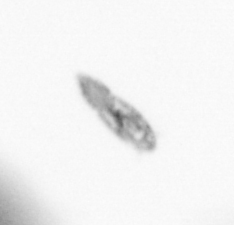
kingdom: Animalia
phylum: Arthropoda
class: Copepoda
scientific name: Copepoda
